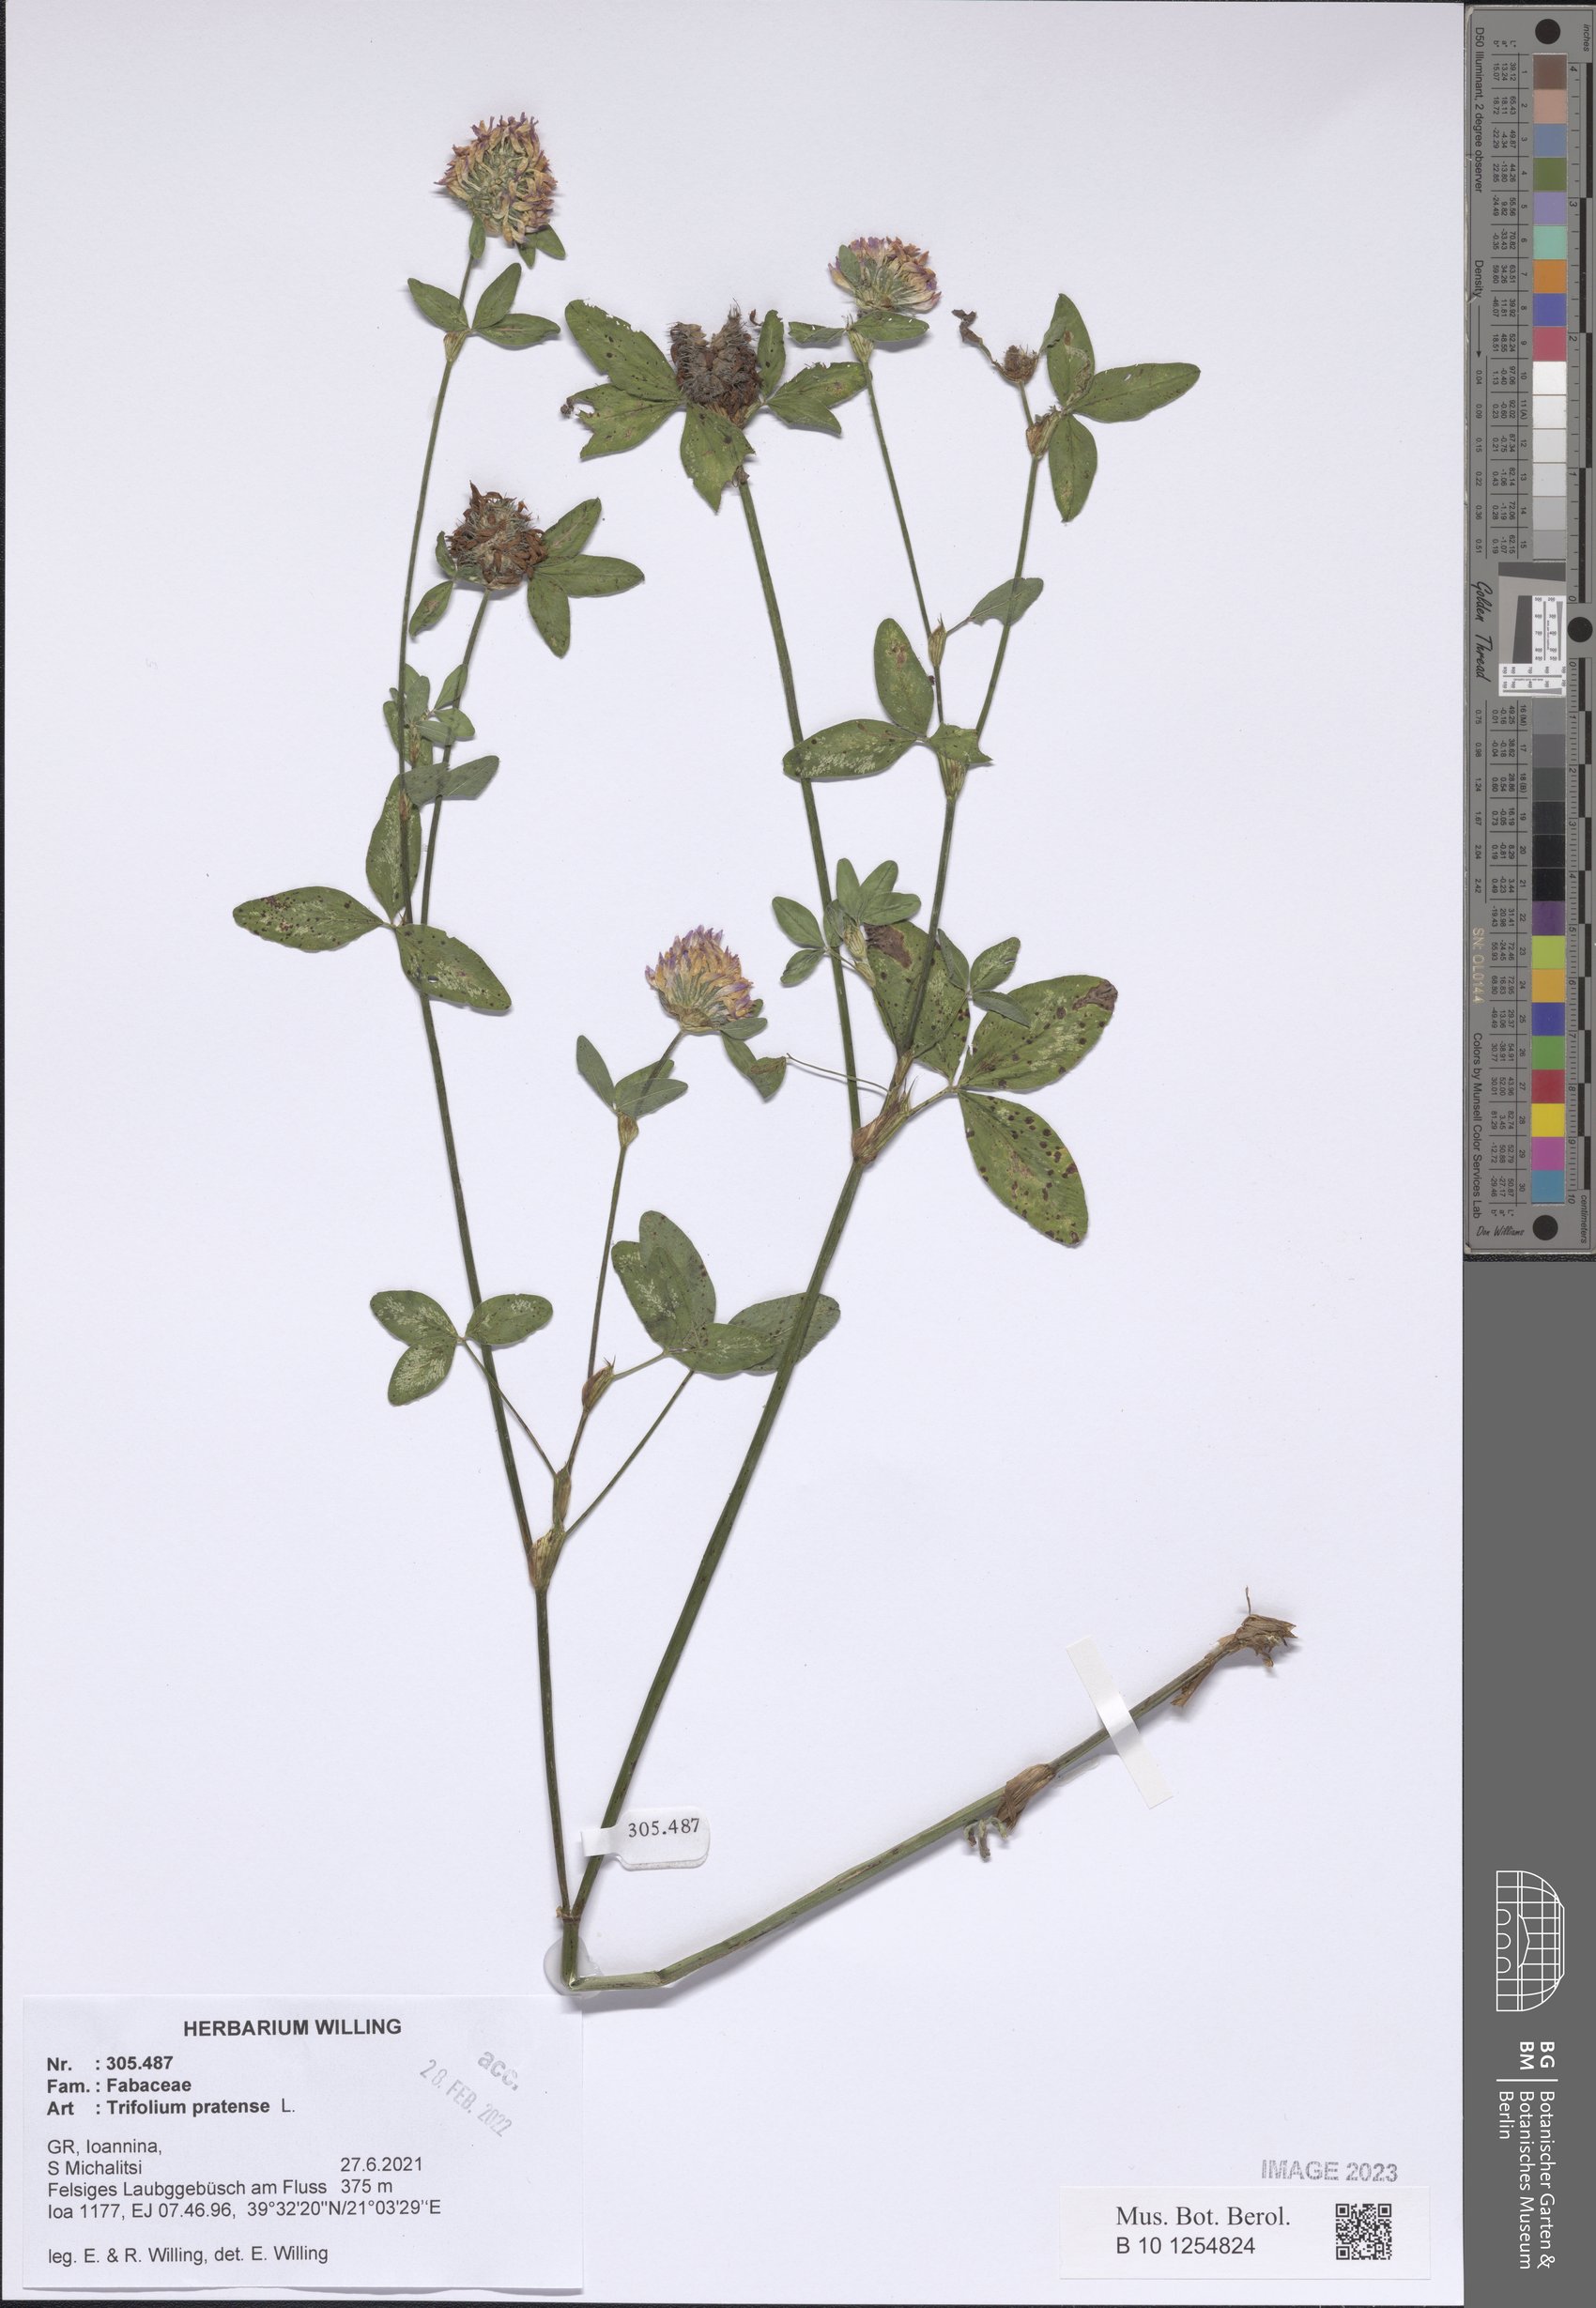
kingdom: Plantae
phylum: Tracheophyta
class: Magnoliopsida
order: Fabales
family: Fabaceae
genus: Trifolium
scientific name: Trifolium pratense
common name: Red clover
